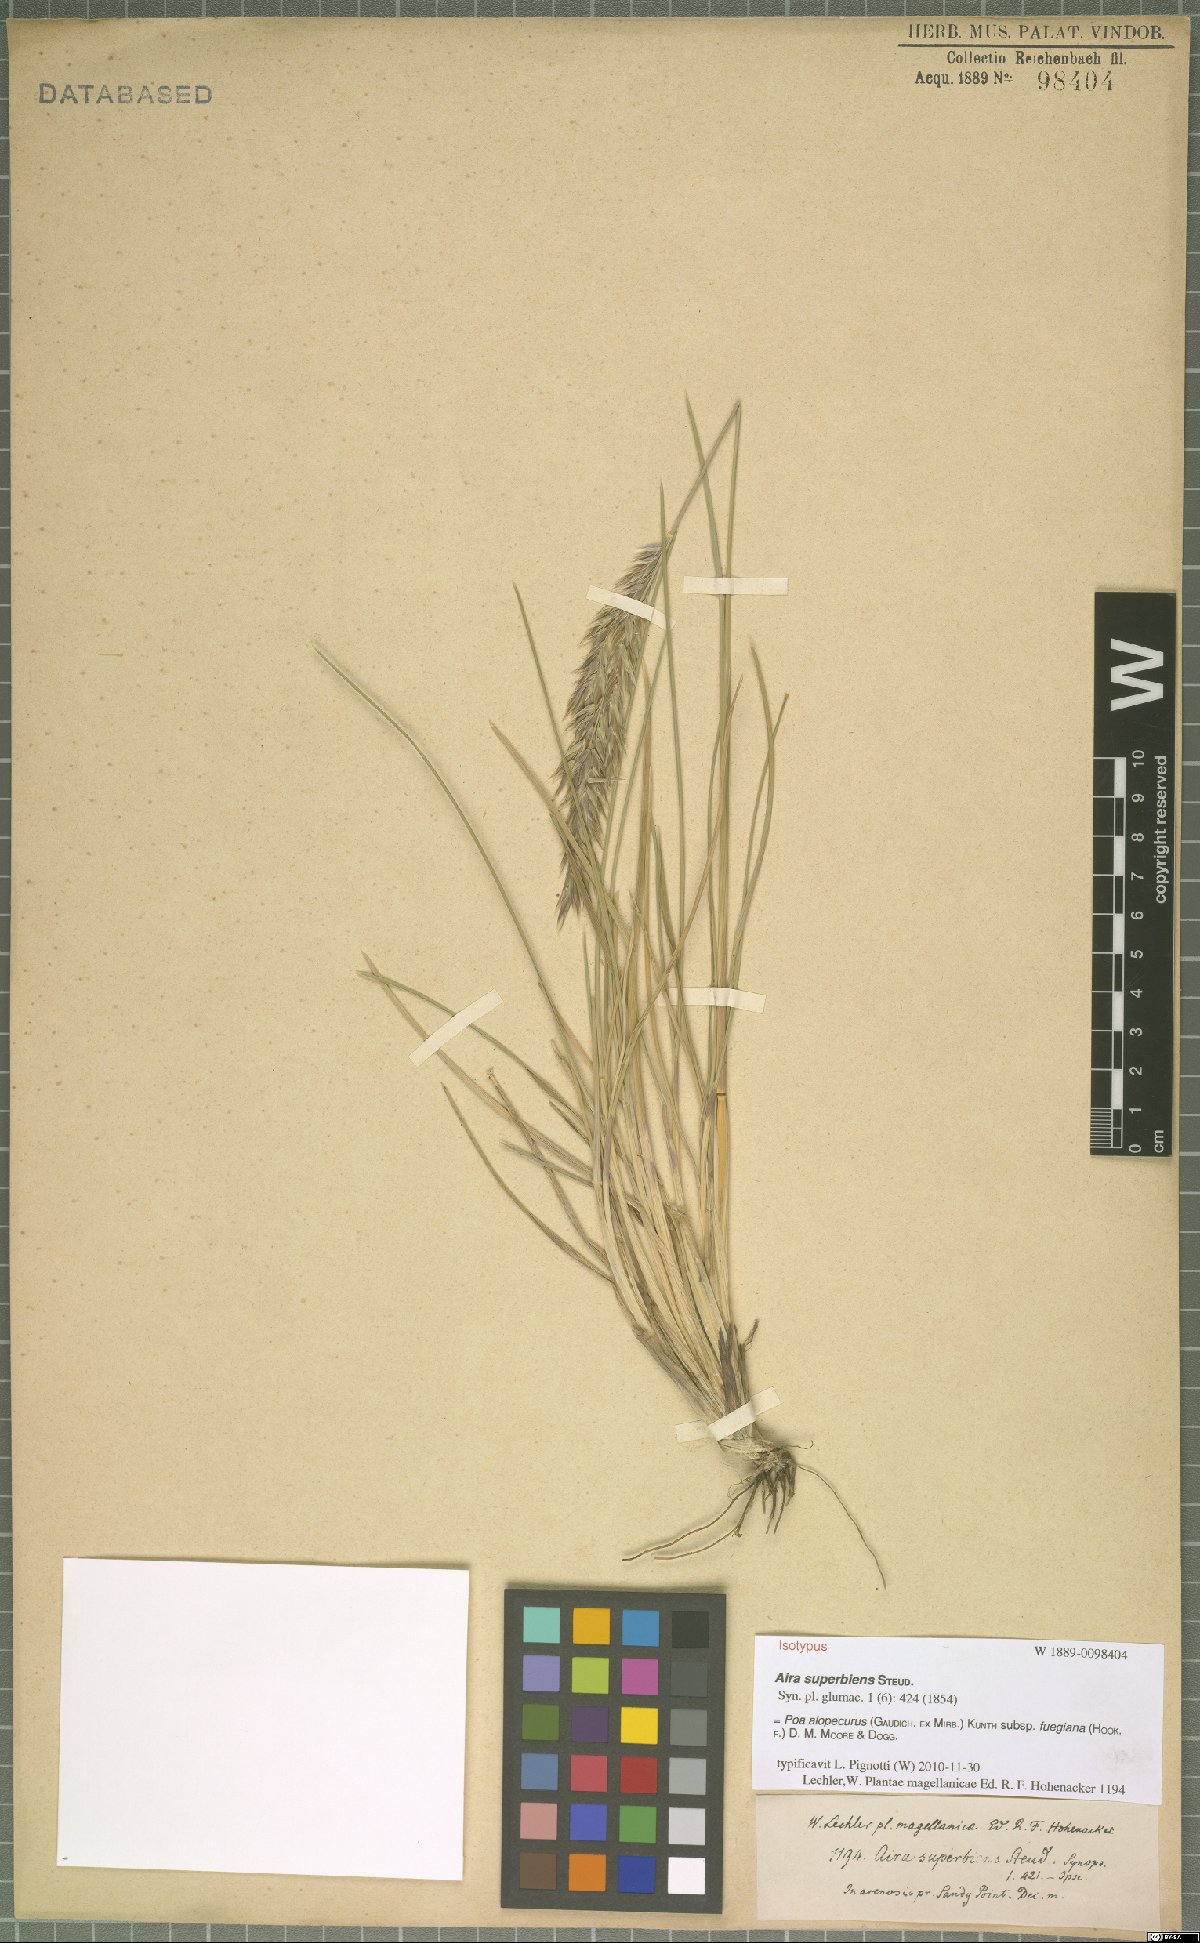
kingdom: Plantae
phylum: Tracheophyta
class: Liliopsida
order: Poales
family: Poaceae
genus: Poa
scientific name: Poa alopecurus
